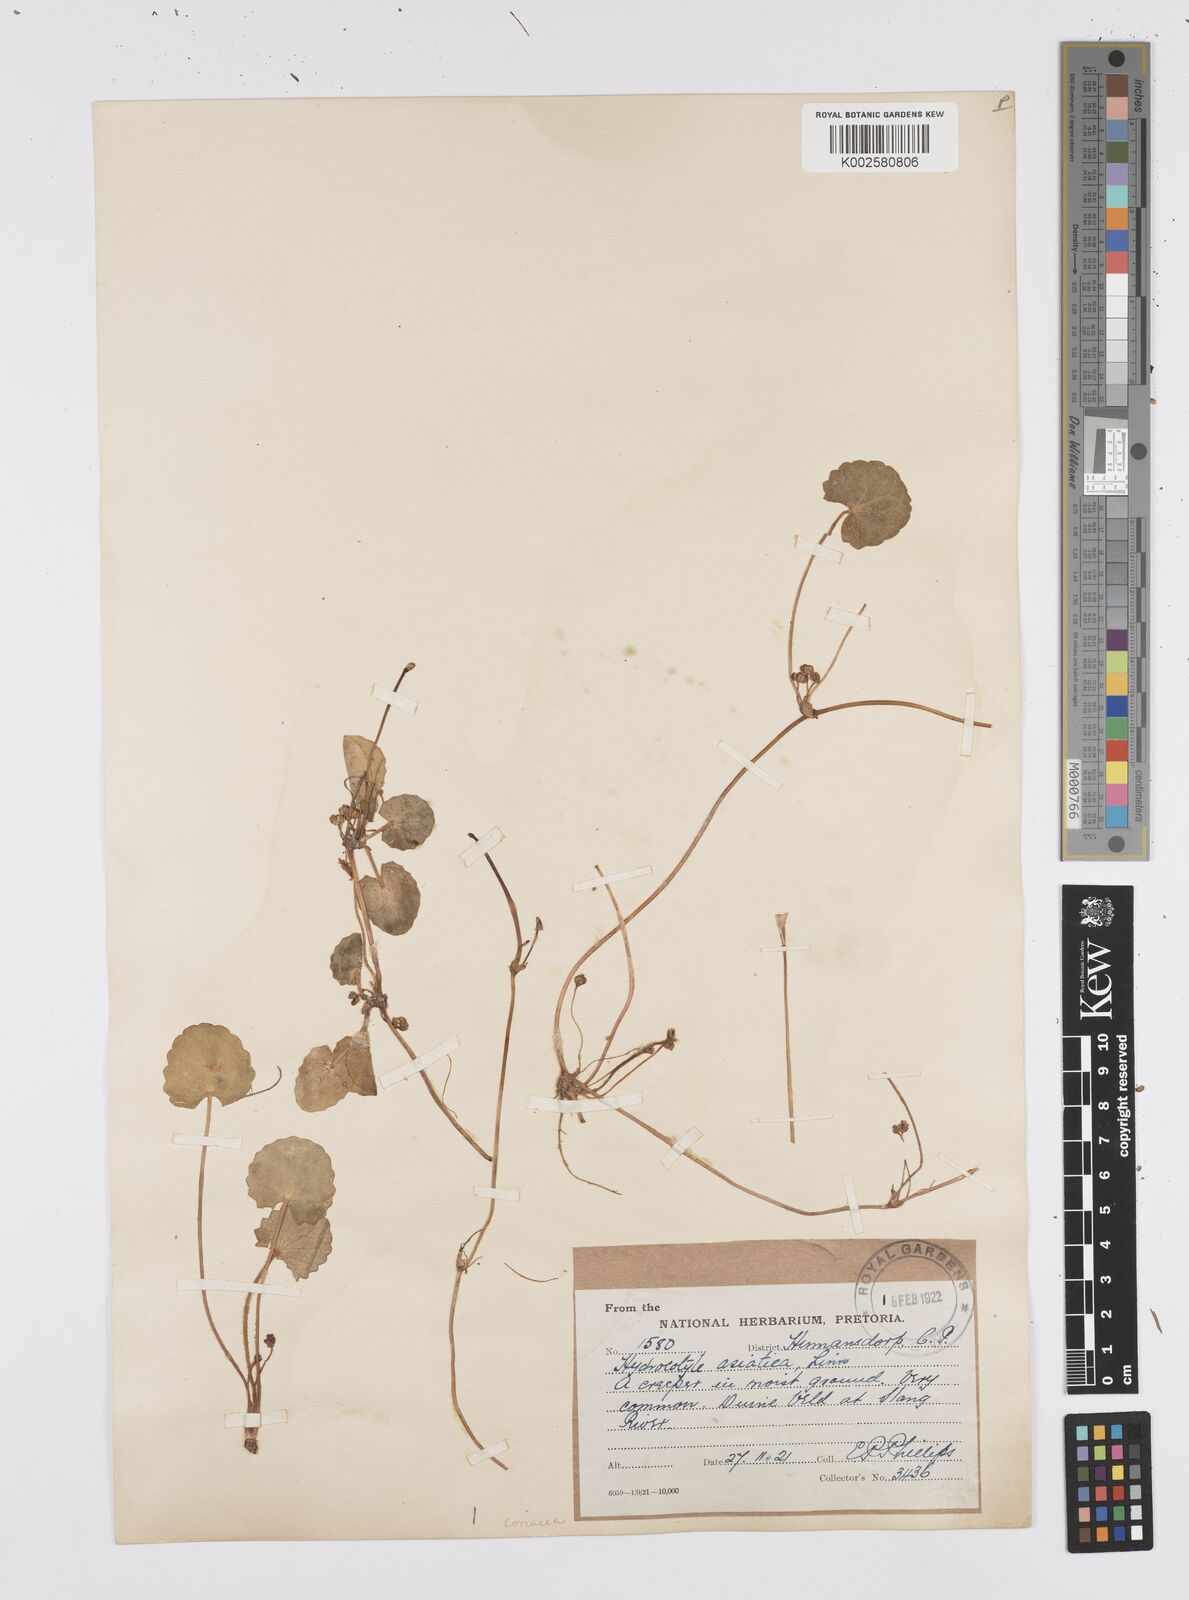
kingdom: Plantae
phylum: Tracheophyta
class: Magnoliopsida
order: Apiales
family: Apiaceae
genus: Centella
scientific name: Centella coriacea
